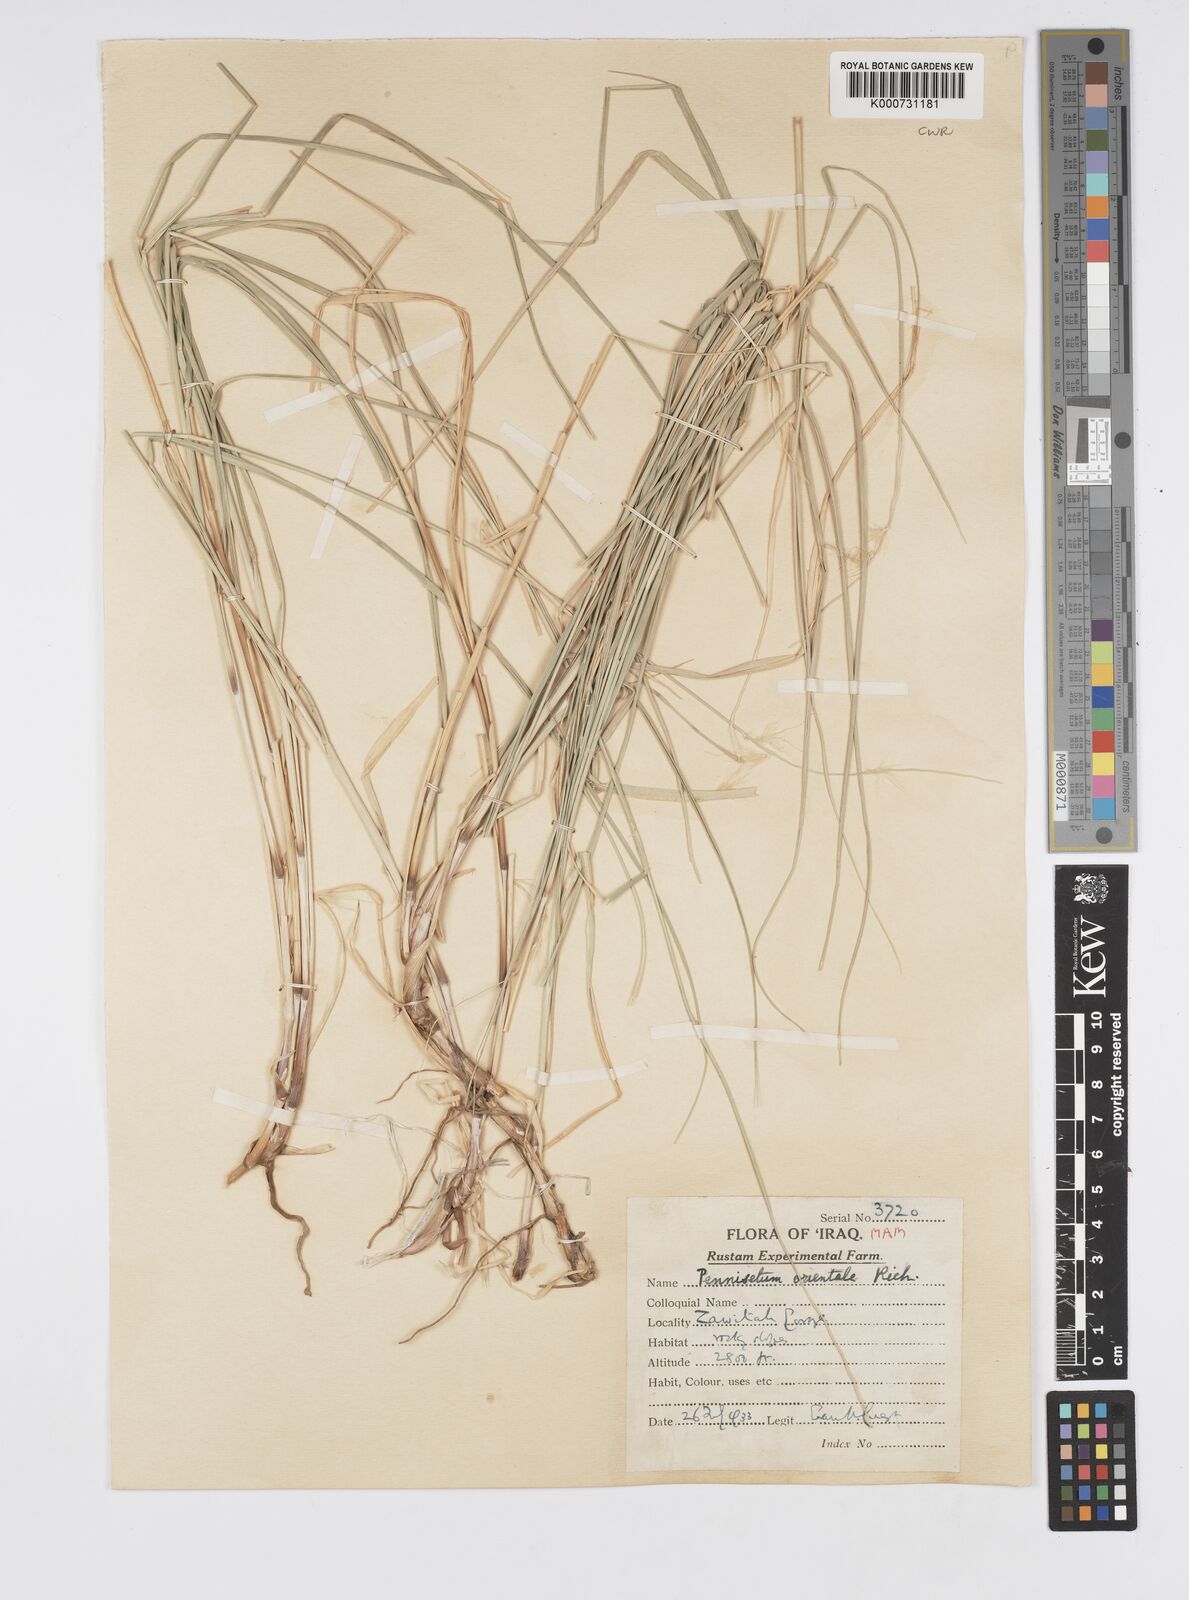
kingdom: Plantae
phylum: Tracheophyta
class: Liliopsida
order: Poales
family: Poaceae
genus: Cenchrus
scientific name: Cenchrus orientalis
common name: Oriental fountain grass
